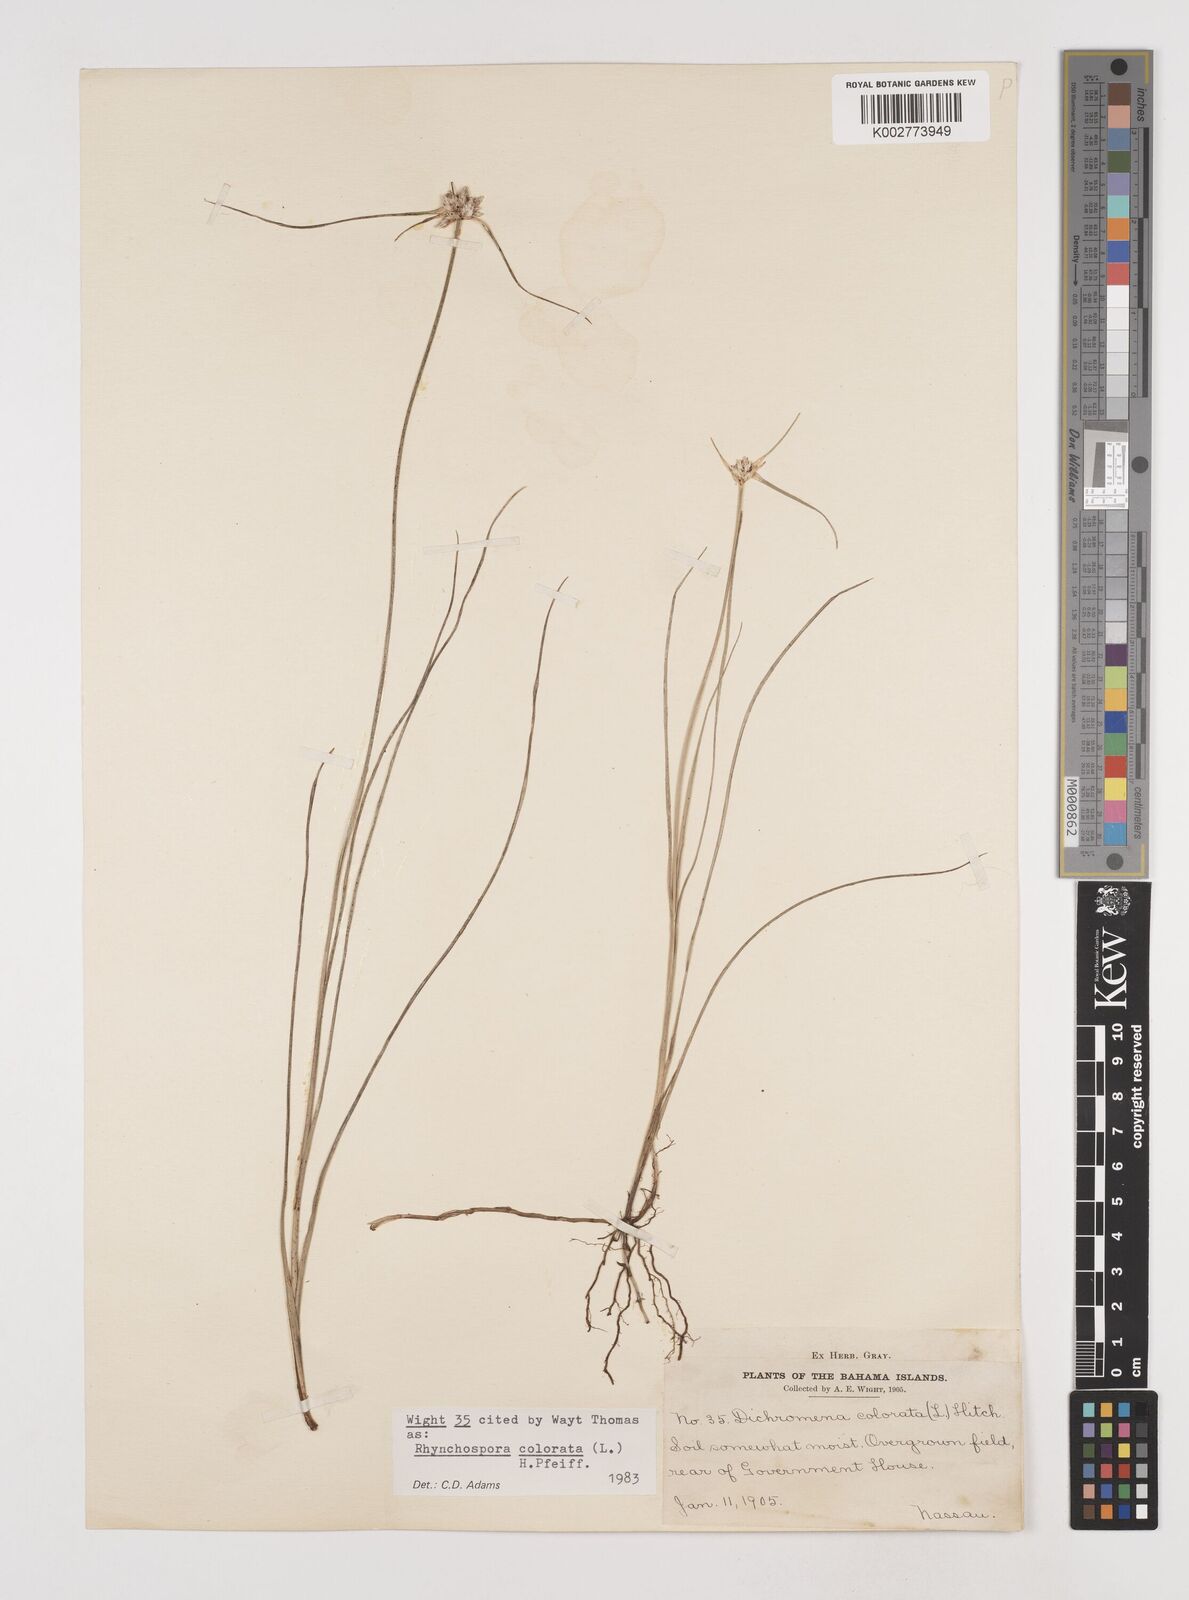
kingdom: Plantae
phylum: Tracheophyta
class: Liliopsida
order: Poales
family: Cyperaceae
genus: Rhynchospora
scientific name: Rhynchospora colorata
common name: Star sedge
